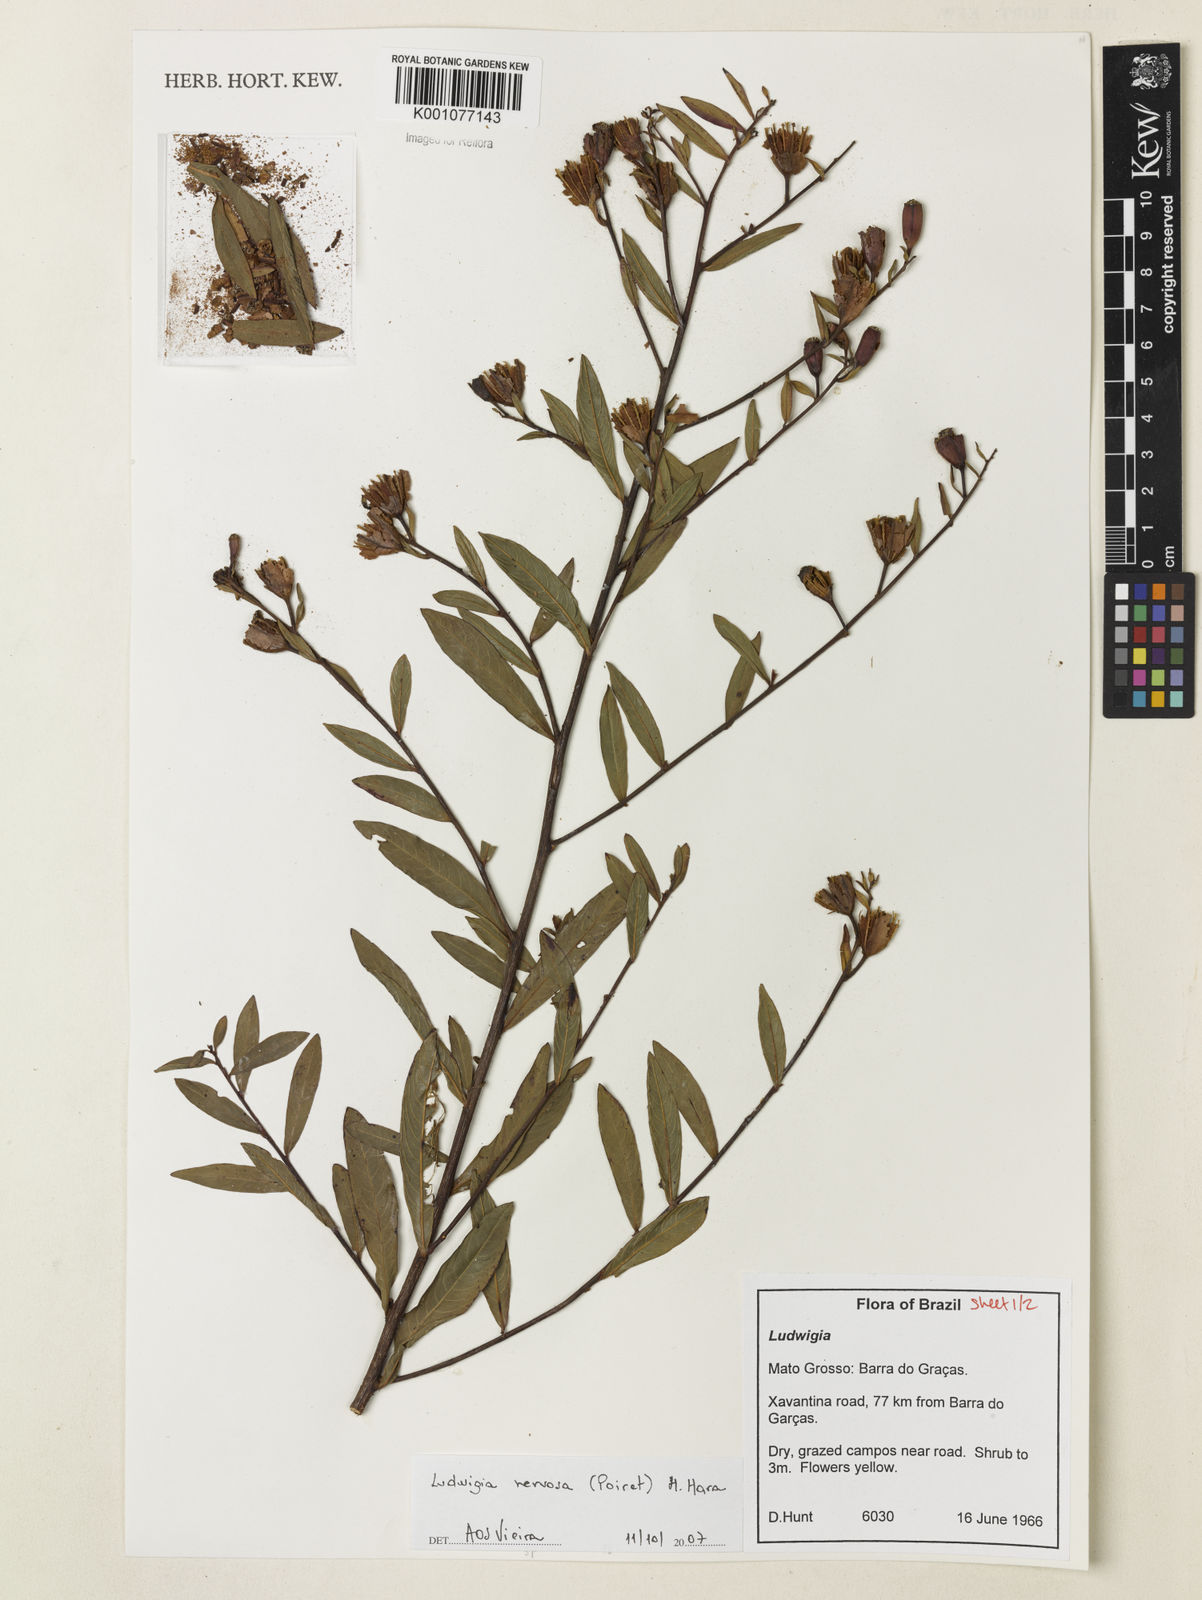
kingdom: Plantae
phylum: Tracheophyta
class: Magnoliopsida
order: Myrtales
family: Onagraceae
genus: Ludwigia
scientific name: Ludwigia nervosa
